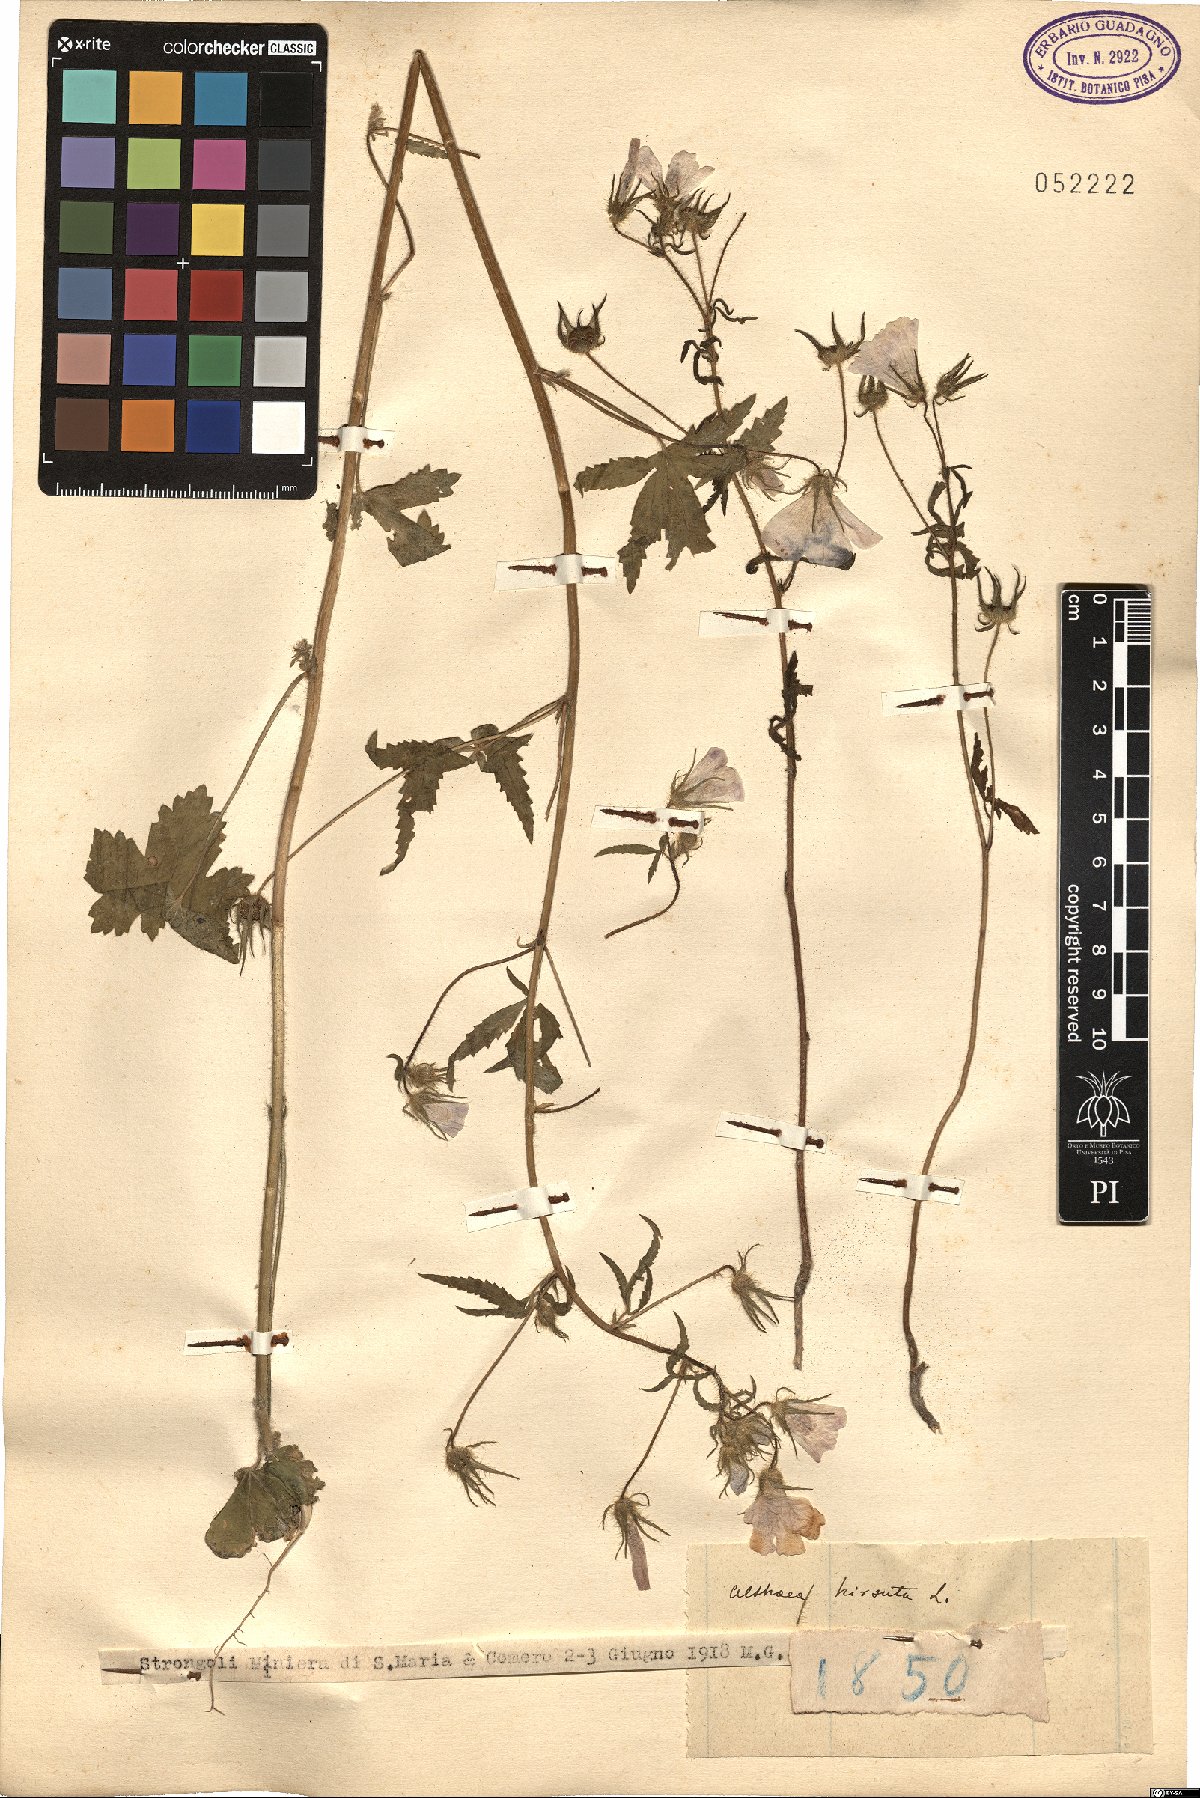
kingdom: Plantae
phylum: Tracheophyta
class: Magnoliopsida
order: Malvales
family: Malvaceae
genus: Althaea
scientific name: Althaea hirsuta
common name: Rough marsh-mallow
